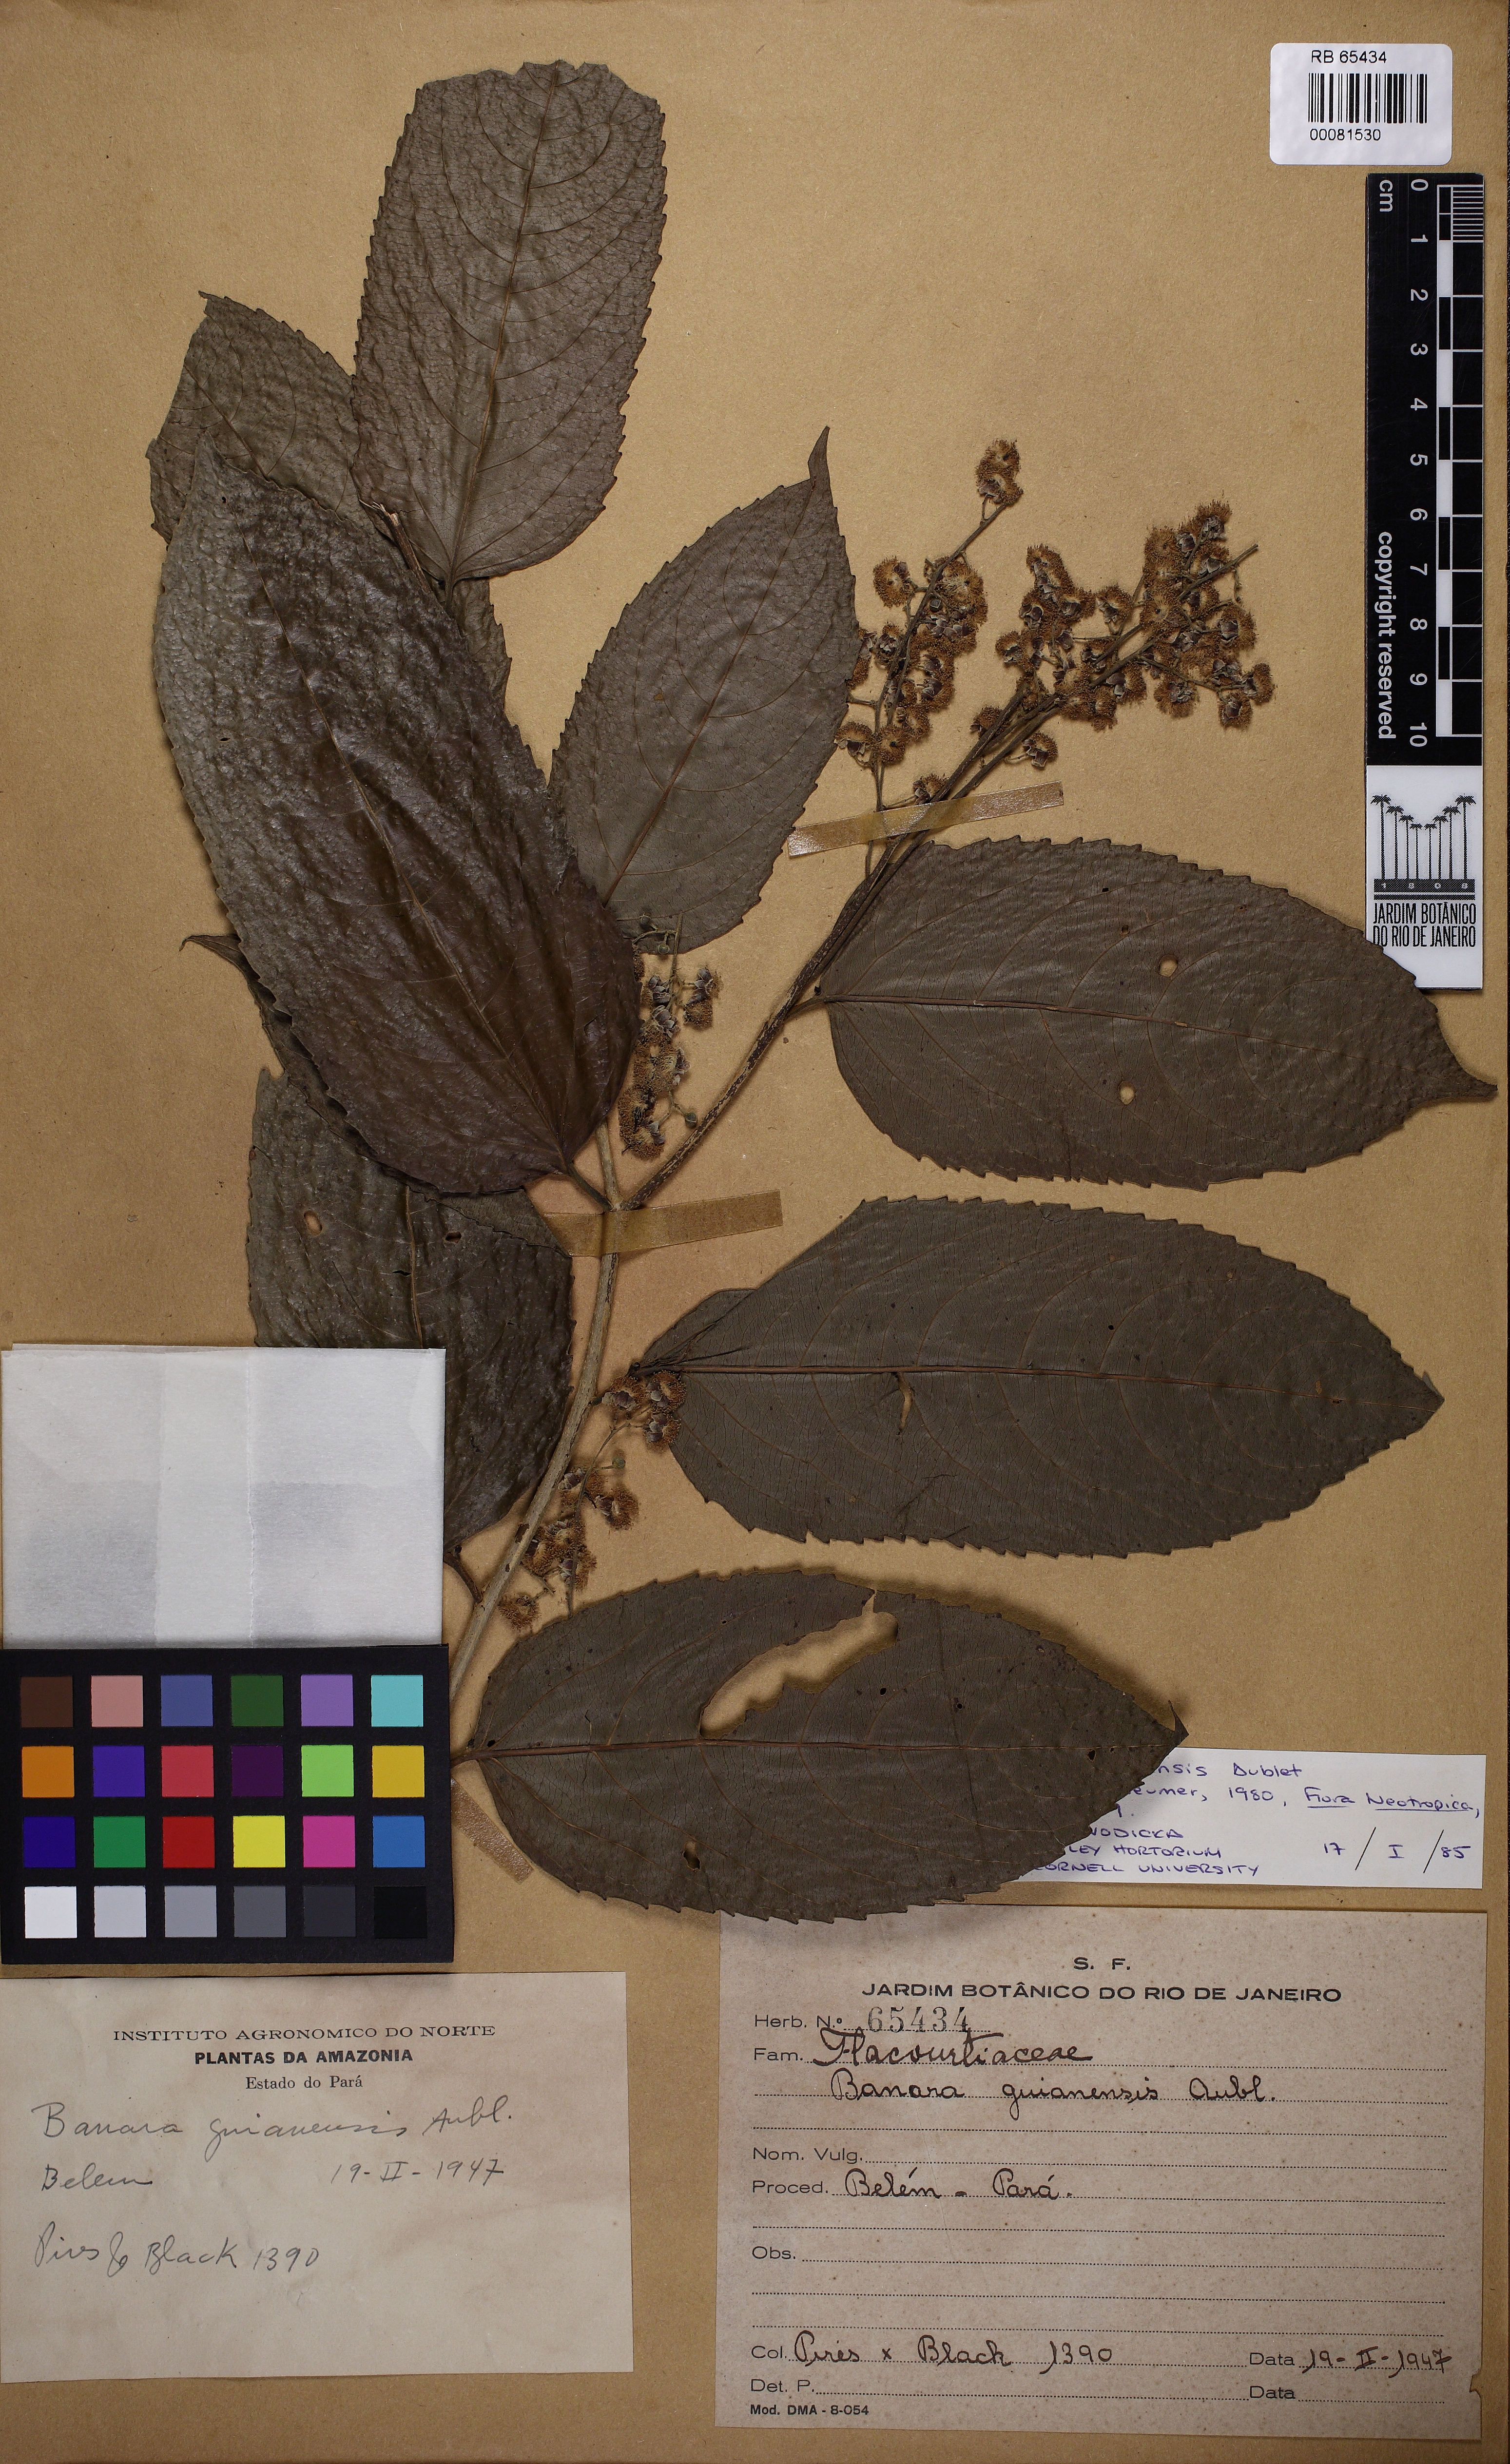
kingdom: Plantae
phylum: Tracheophyta
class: Magnoliopsida
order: Malpighiales
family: Salicaceae
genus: Banara
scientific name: Banara guianensis
